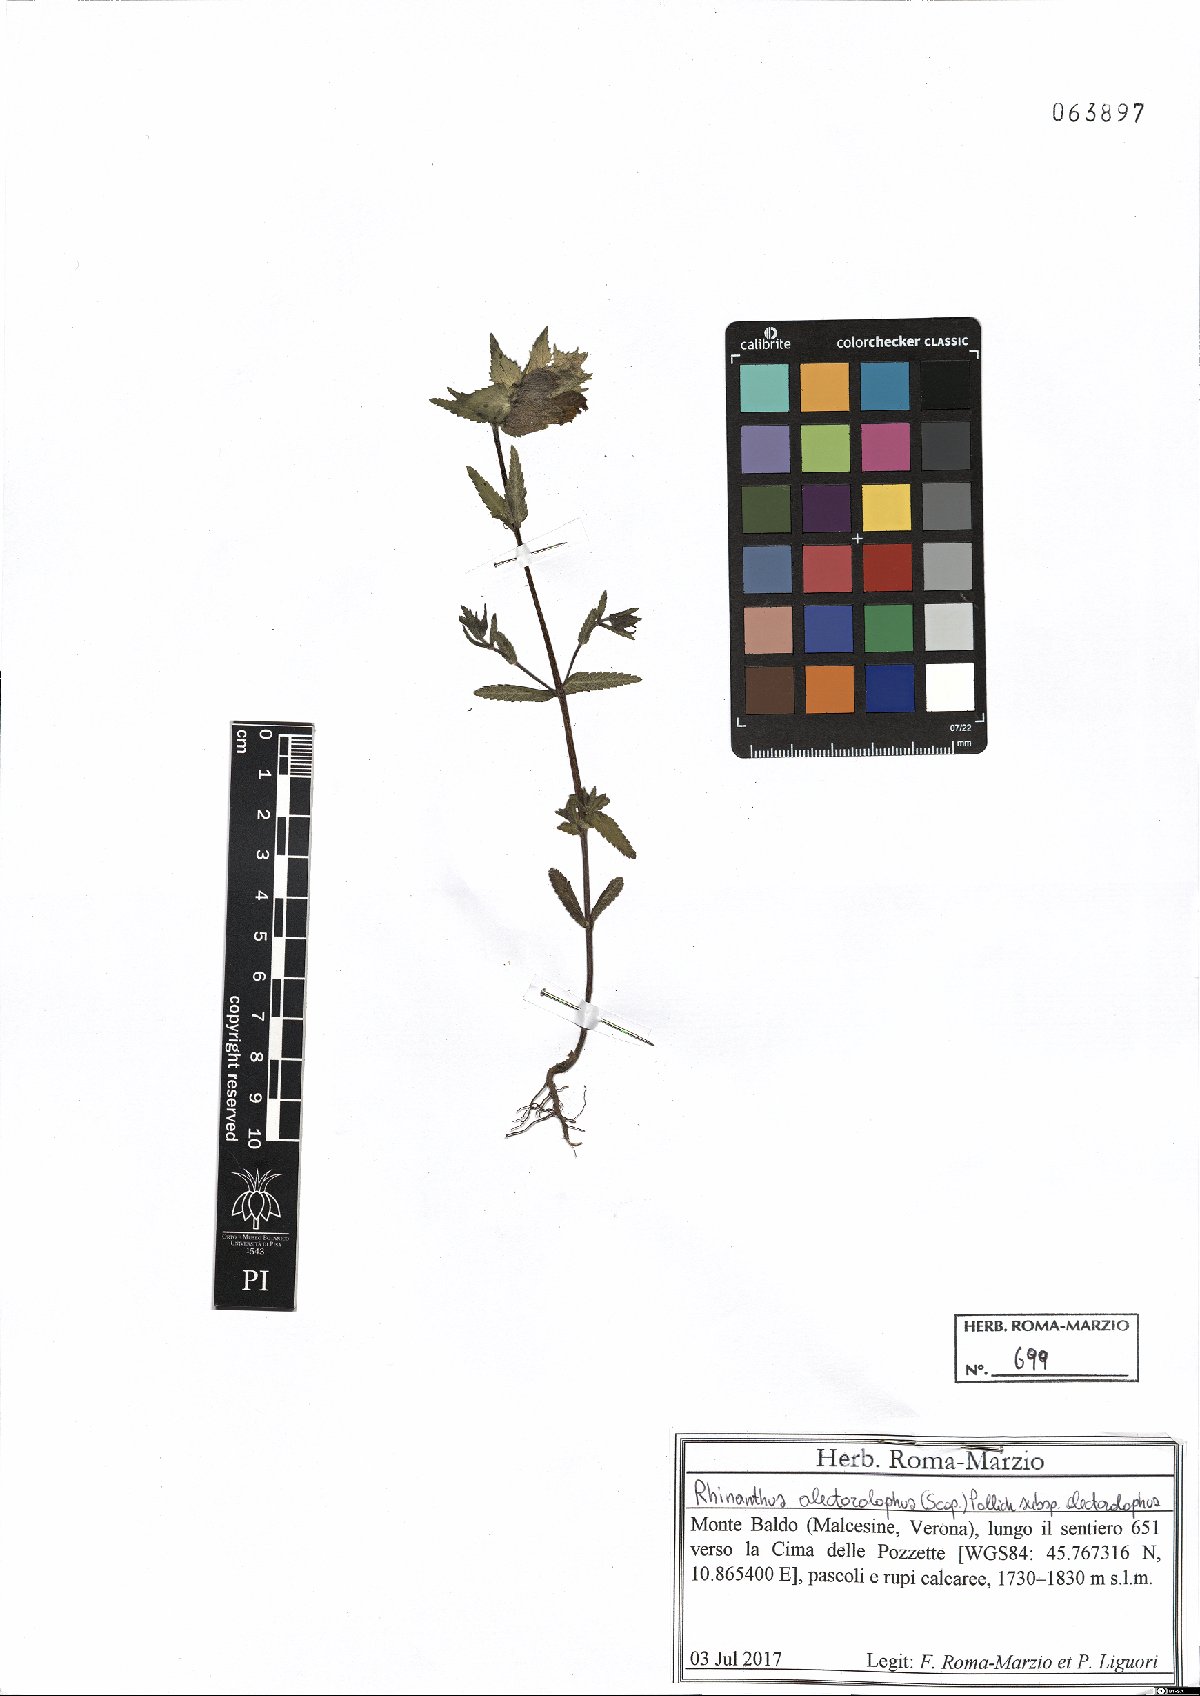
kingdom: Plantae
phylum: Tracheophyta
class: Magnoliopsida
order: Lamiales
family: Orobanchaceae
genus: Rhinanthus
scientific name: Rhinanthus alectorolophus
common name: Greater yellow-rattle
